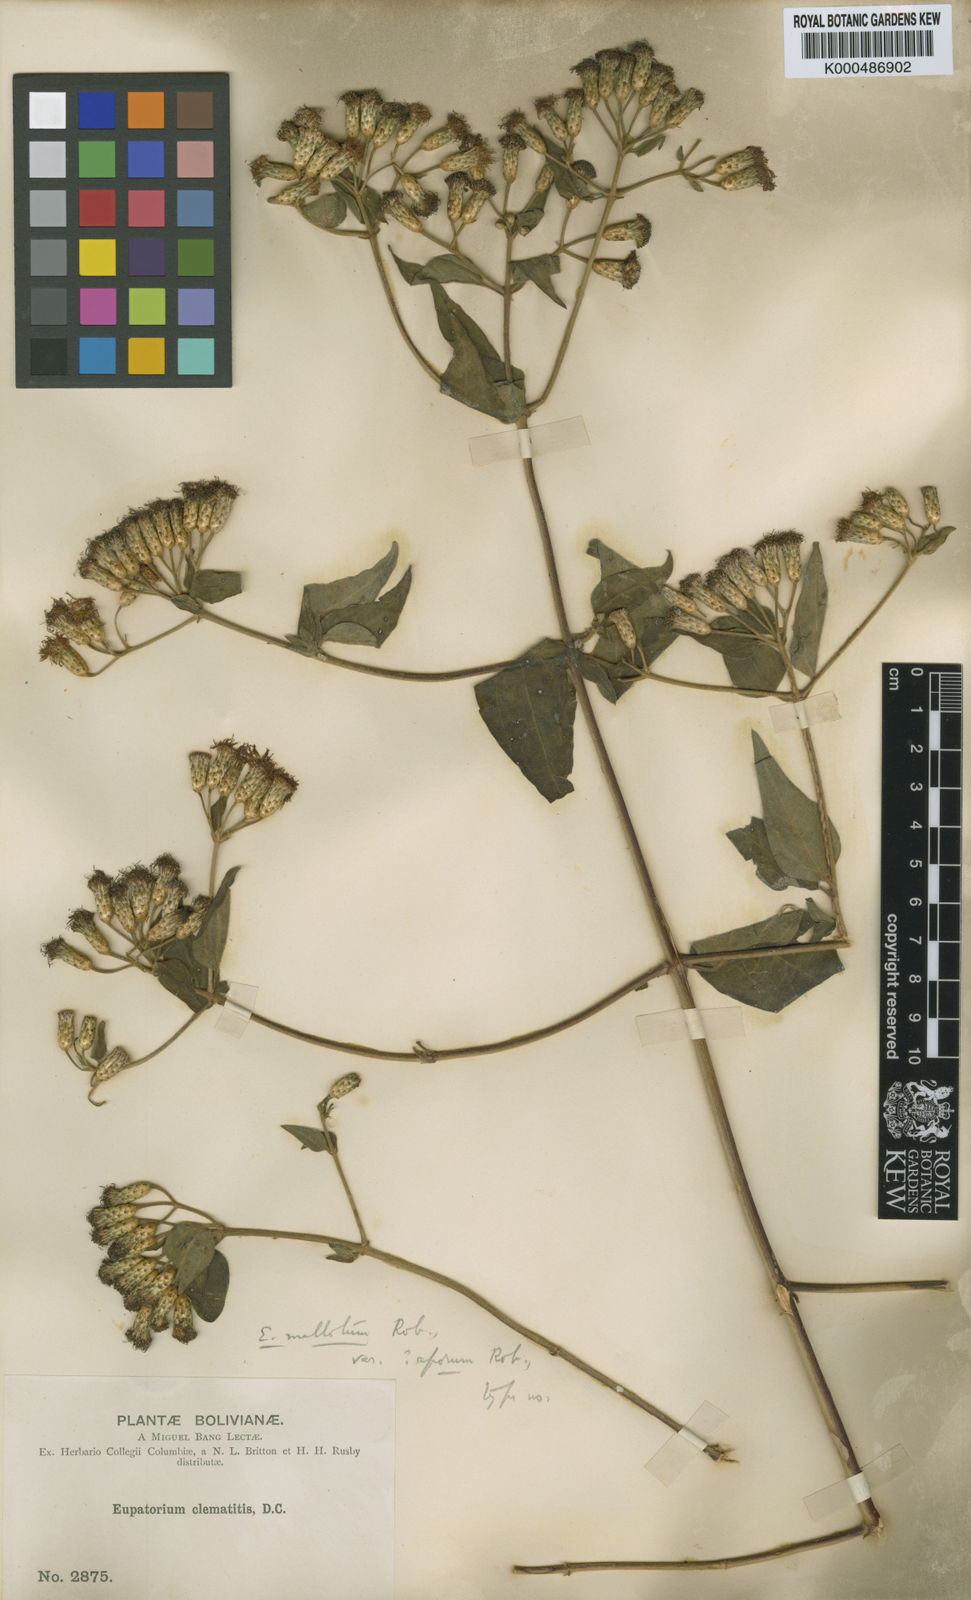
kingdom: Plantae
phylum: Tracheophyta
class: Magnoliopsida
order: Asterales
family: Asteraceae
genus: Chromolaena
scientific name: Chromolaena mallota
